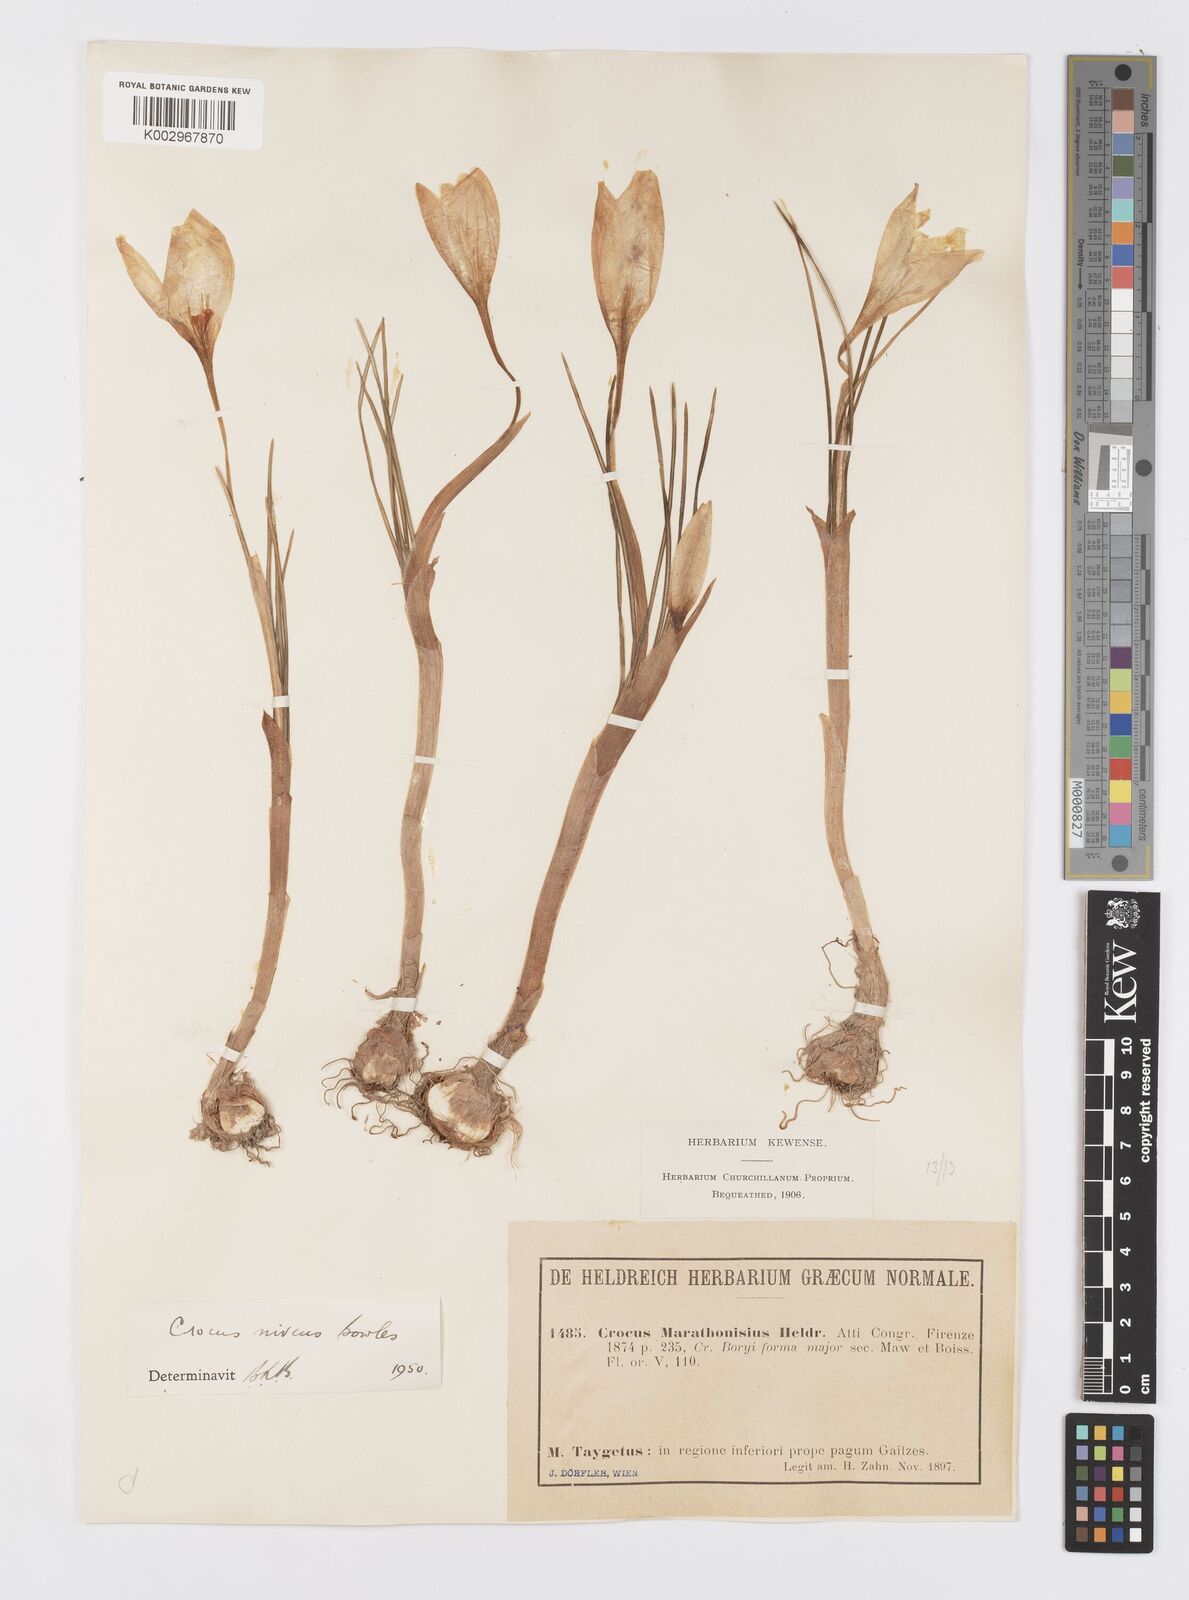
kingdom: Plantae
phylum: Tracheophyta
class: Liliopsida
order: Asparagales
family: Iridaceae
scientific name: Iridaceae
